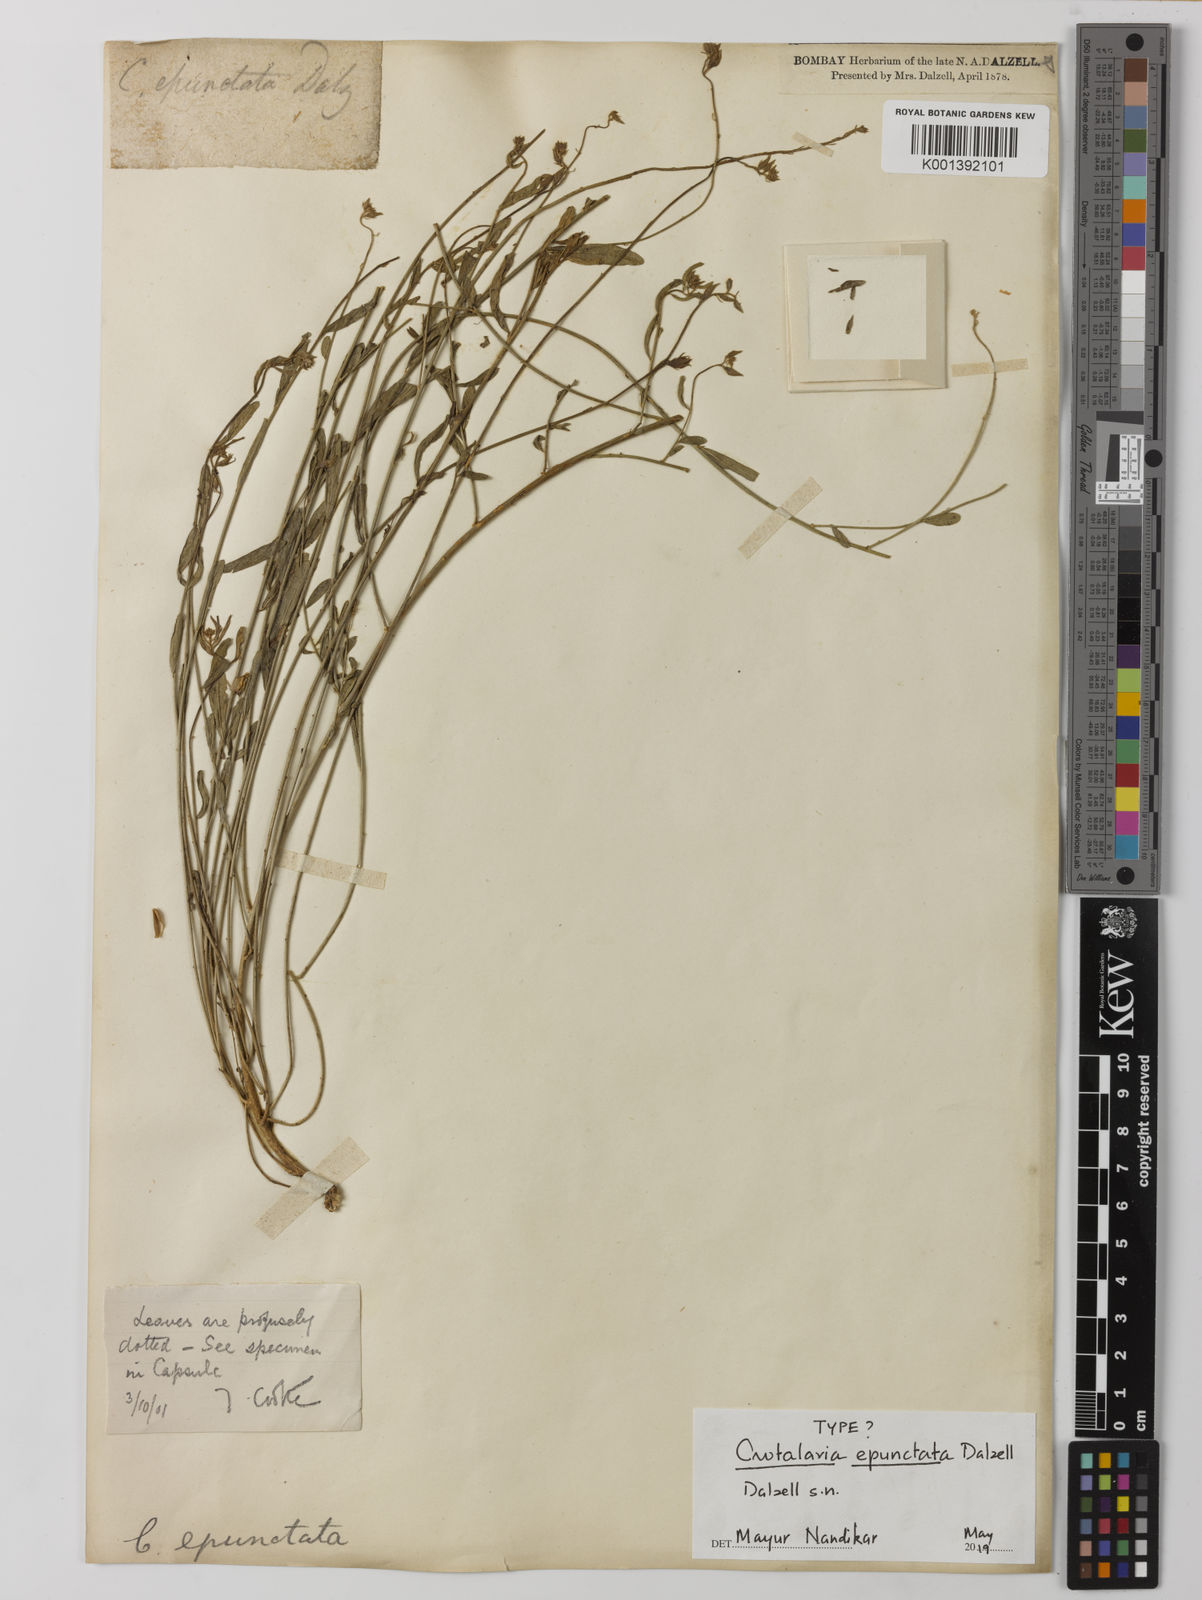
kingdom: Plantae
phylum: Tracheophyta
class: Magnoliopsida
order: Fabales
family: Fabaceae
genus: Crotalaria
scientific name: Crotalaria epunctata
